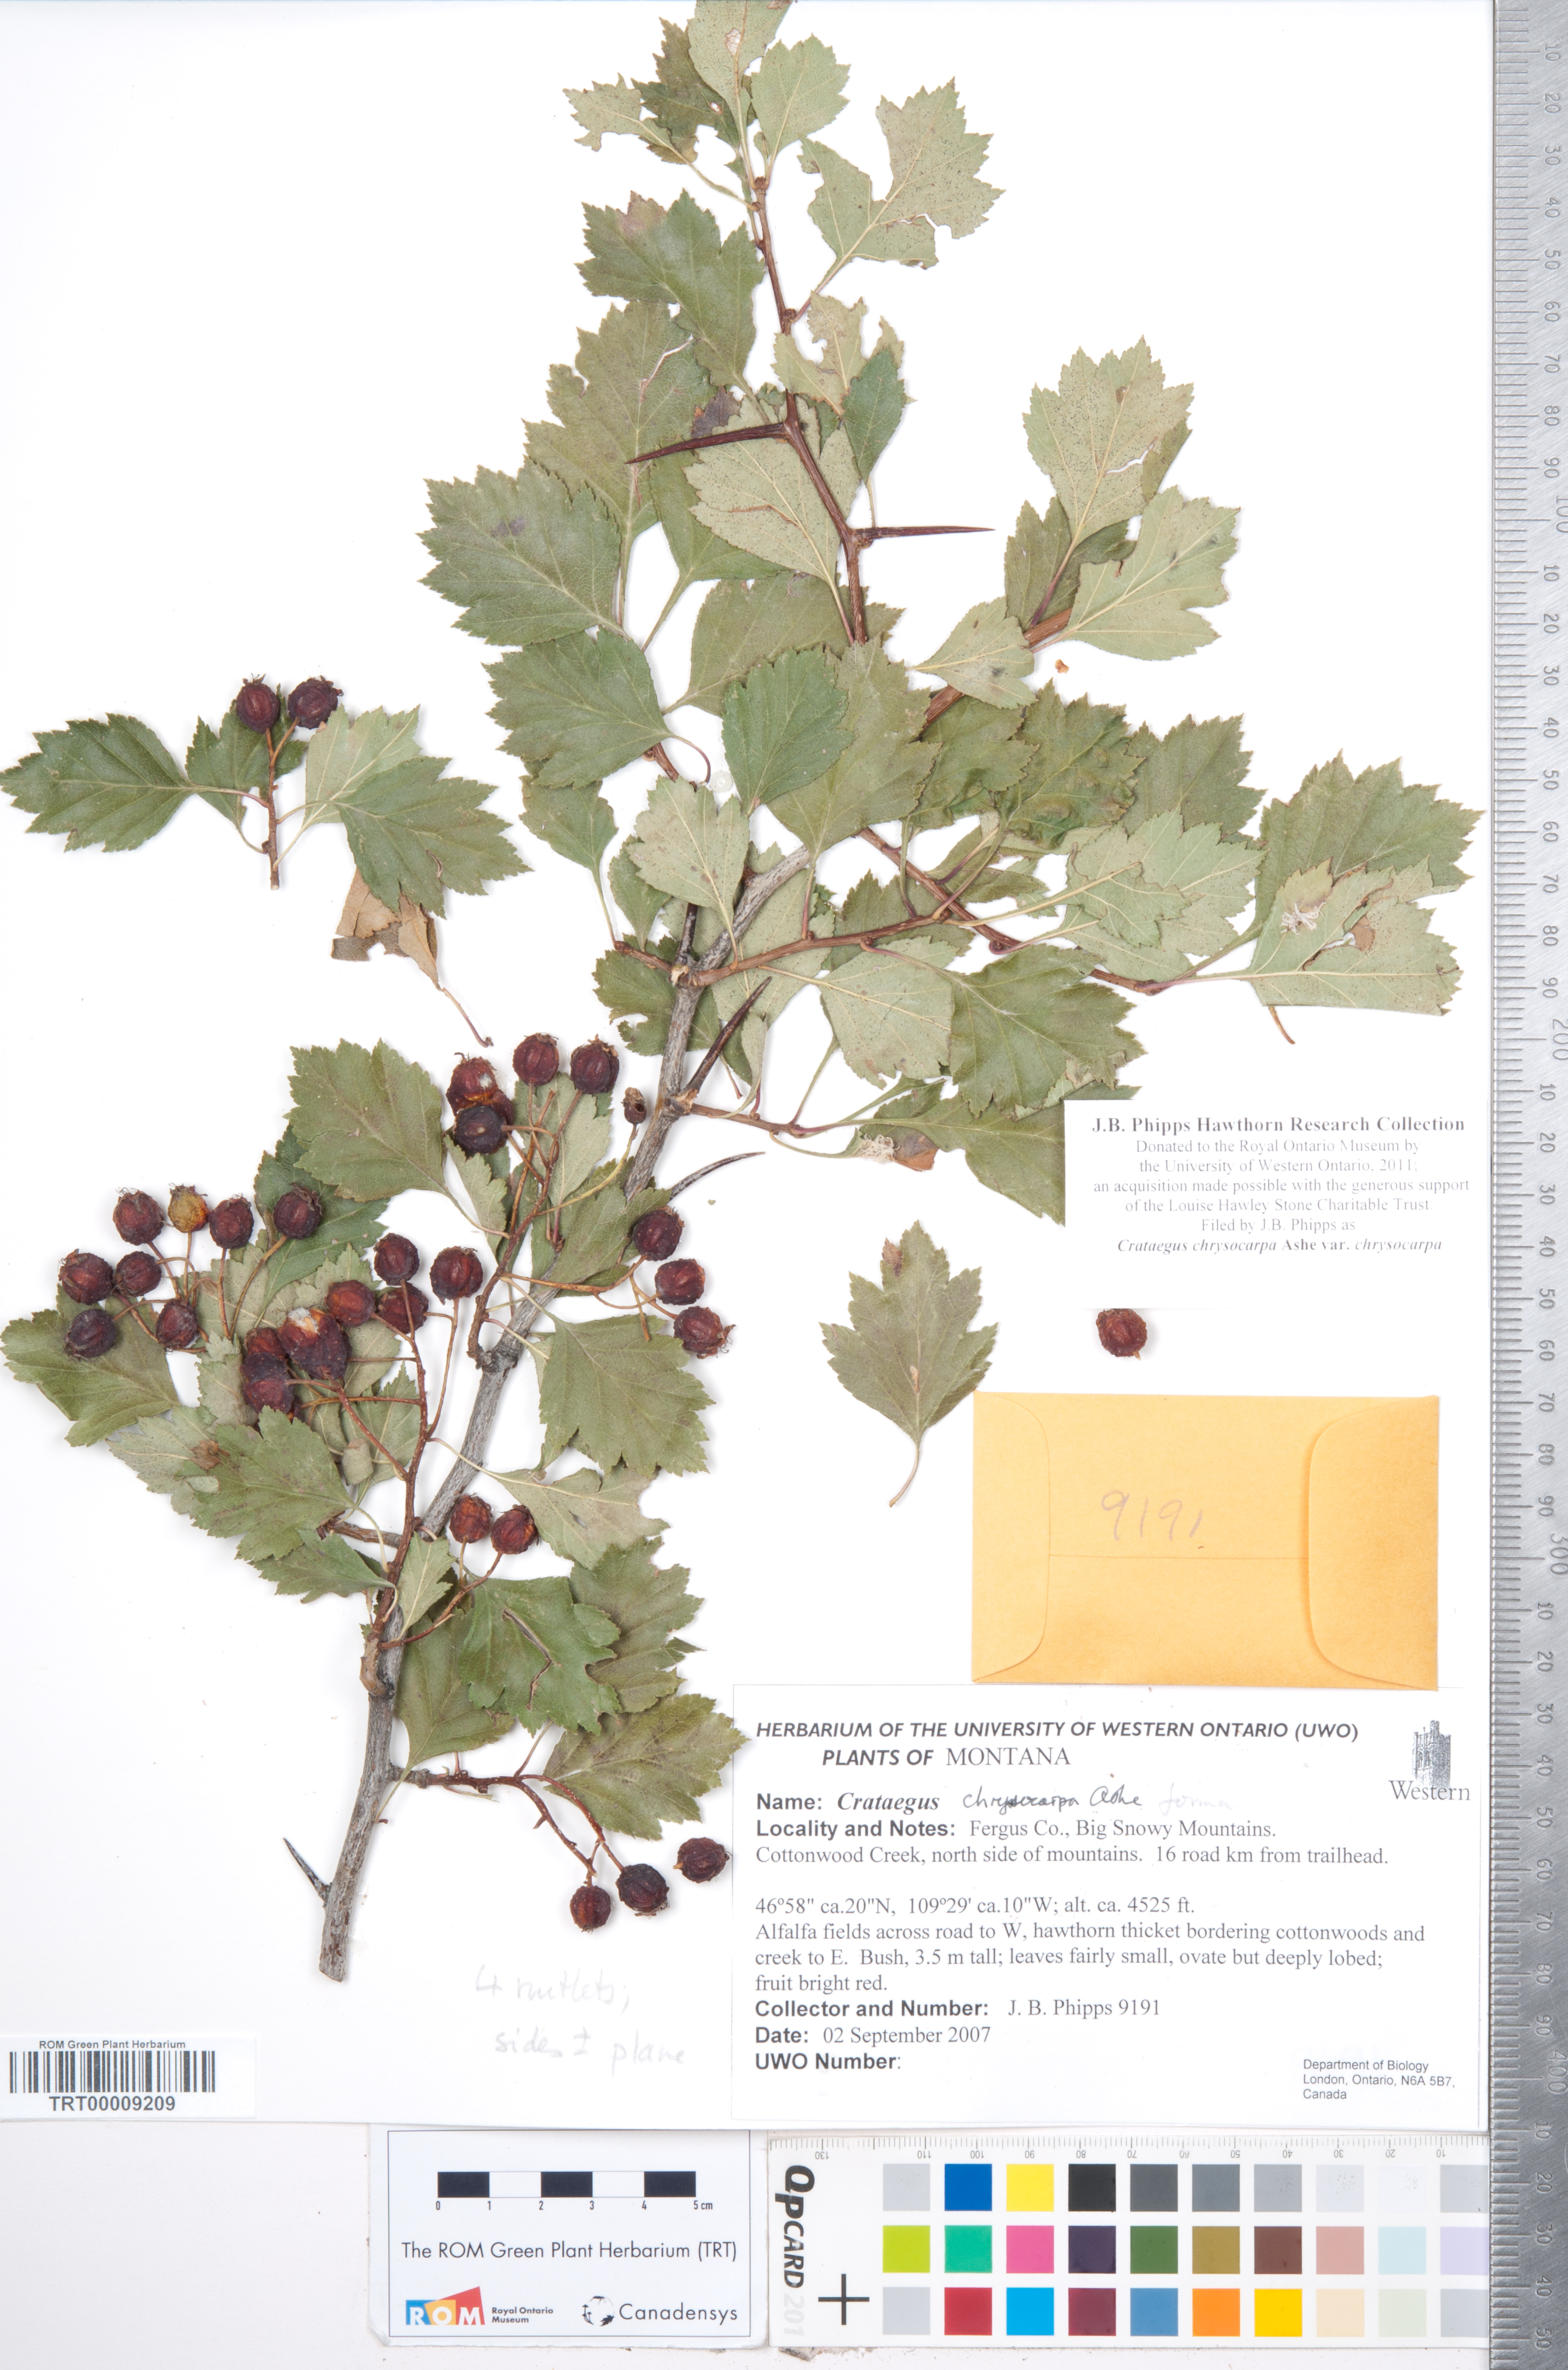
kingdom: Plantae
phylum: Tracheophyta
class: Magnoliopsida
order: Rosales
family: Rosaceae
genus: Crataegus
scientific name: Crataegus chrysocarpa
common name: Fire-berry hawthorn
